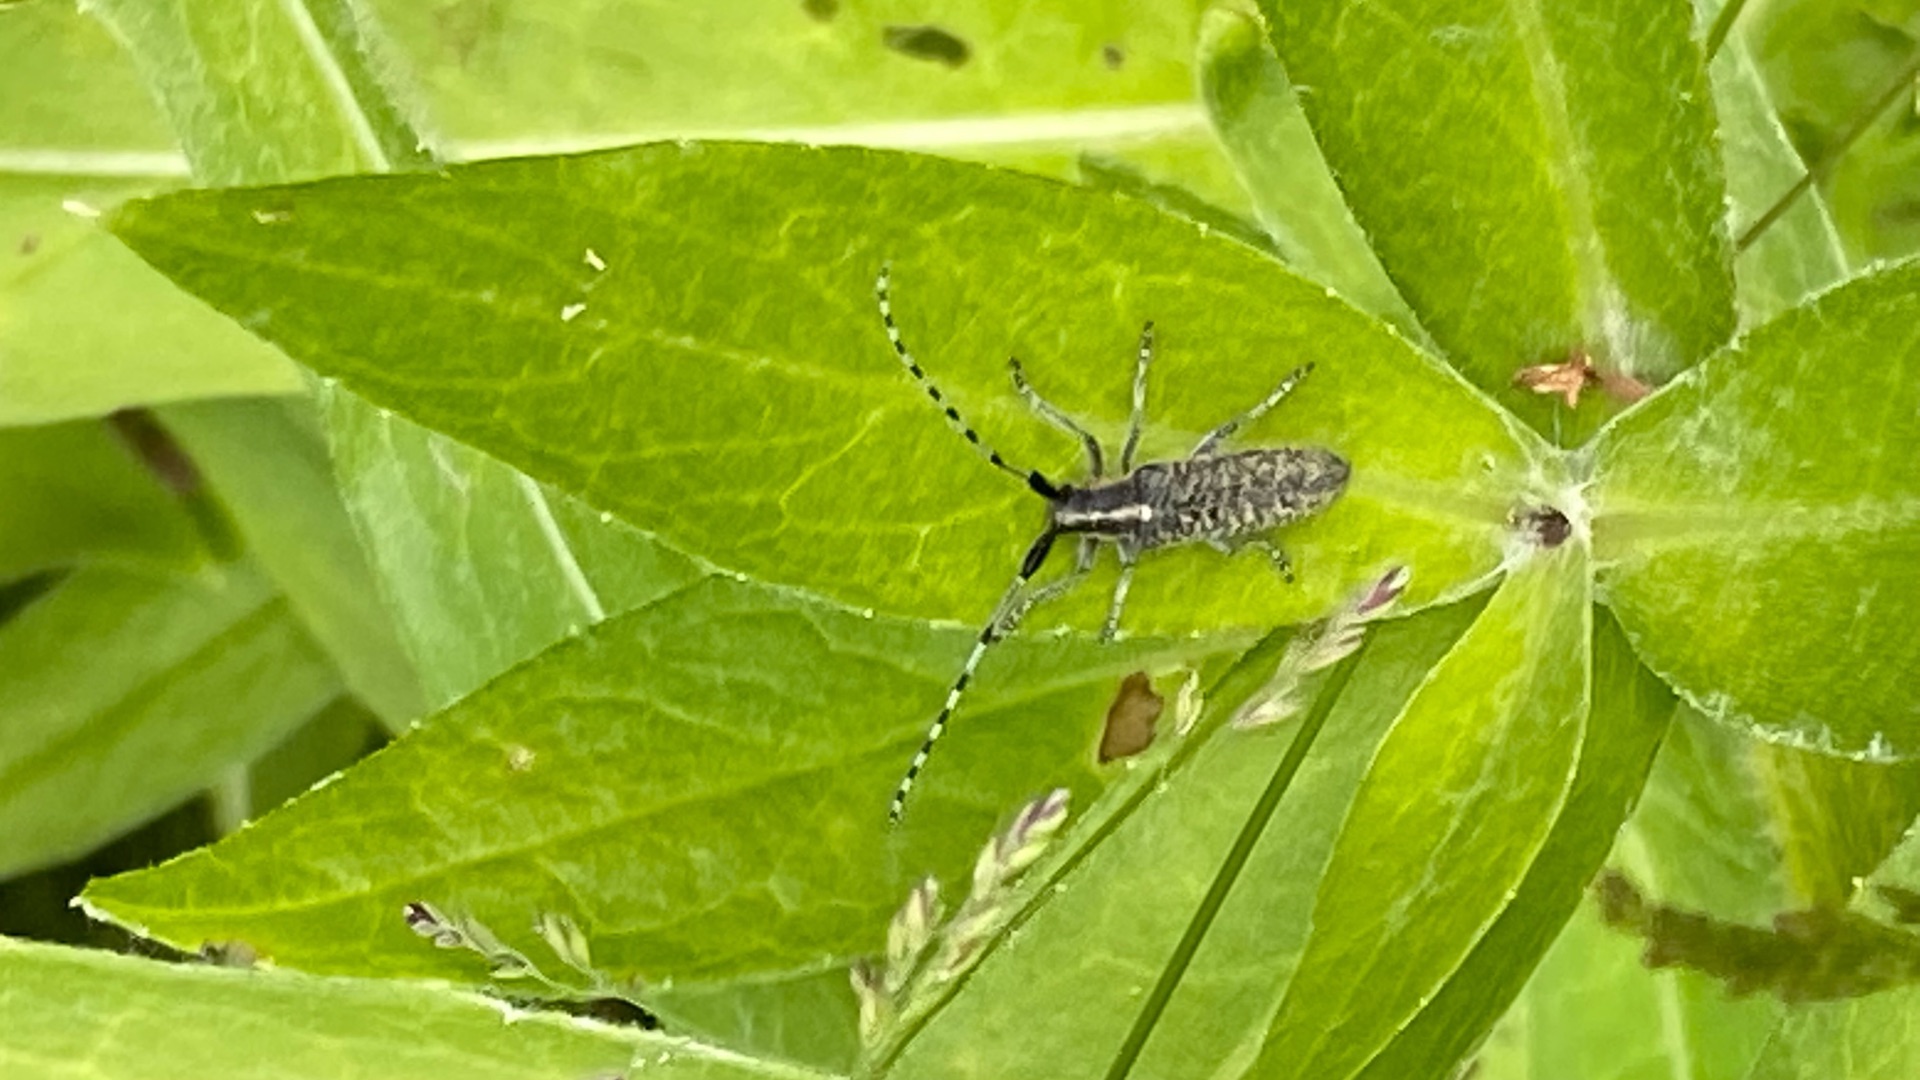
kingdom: Animalia
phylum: Arthropoda
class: Insecta
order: Coleoptera
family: Cerambycidae
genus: Agapanthia
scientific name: Agapanthia villosoviridescens
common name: Tidselbuk
